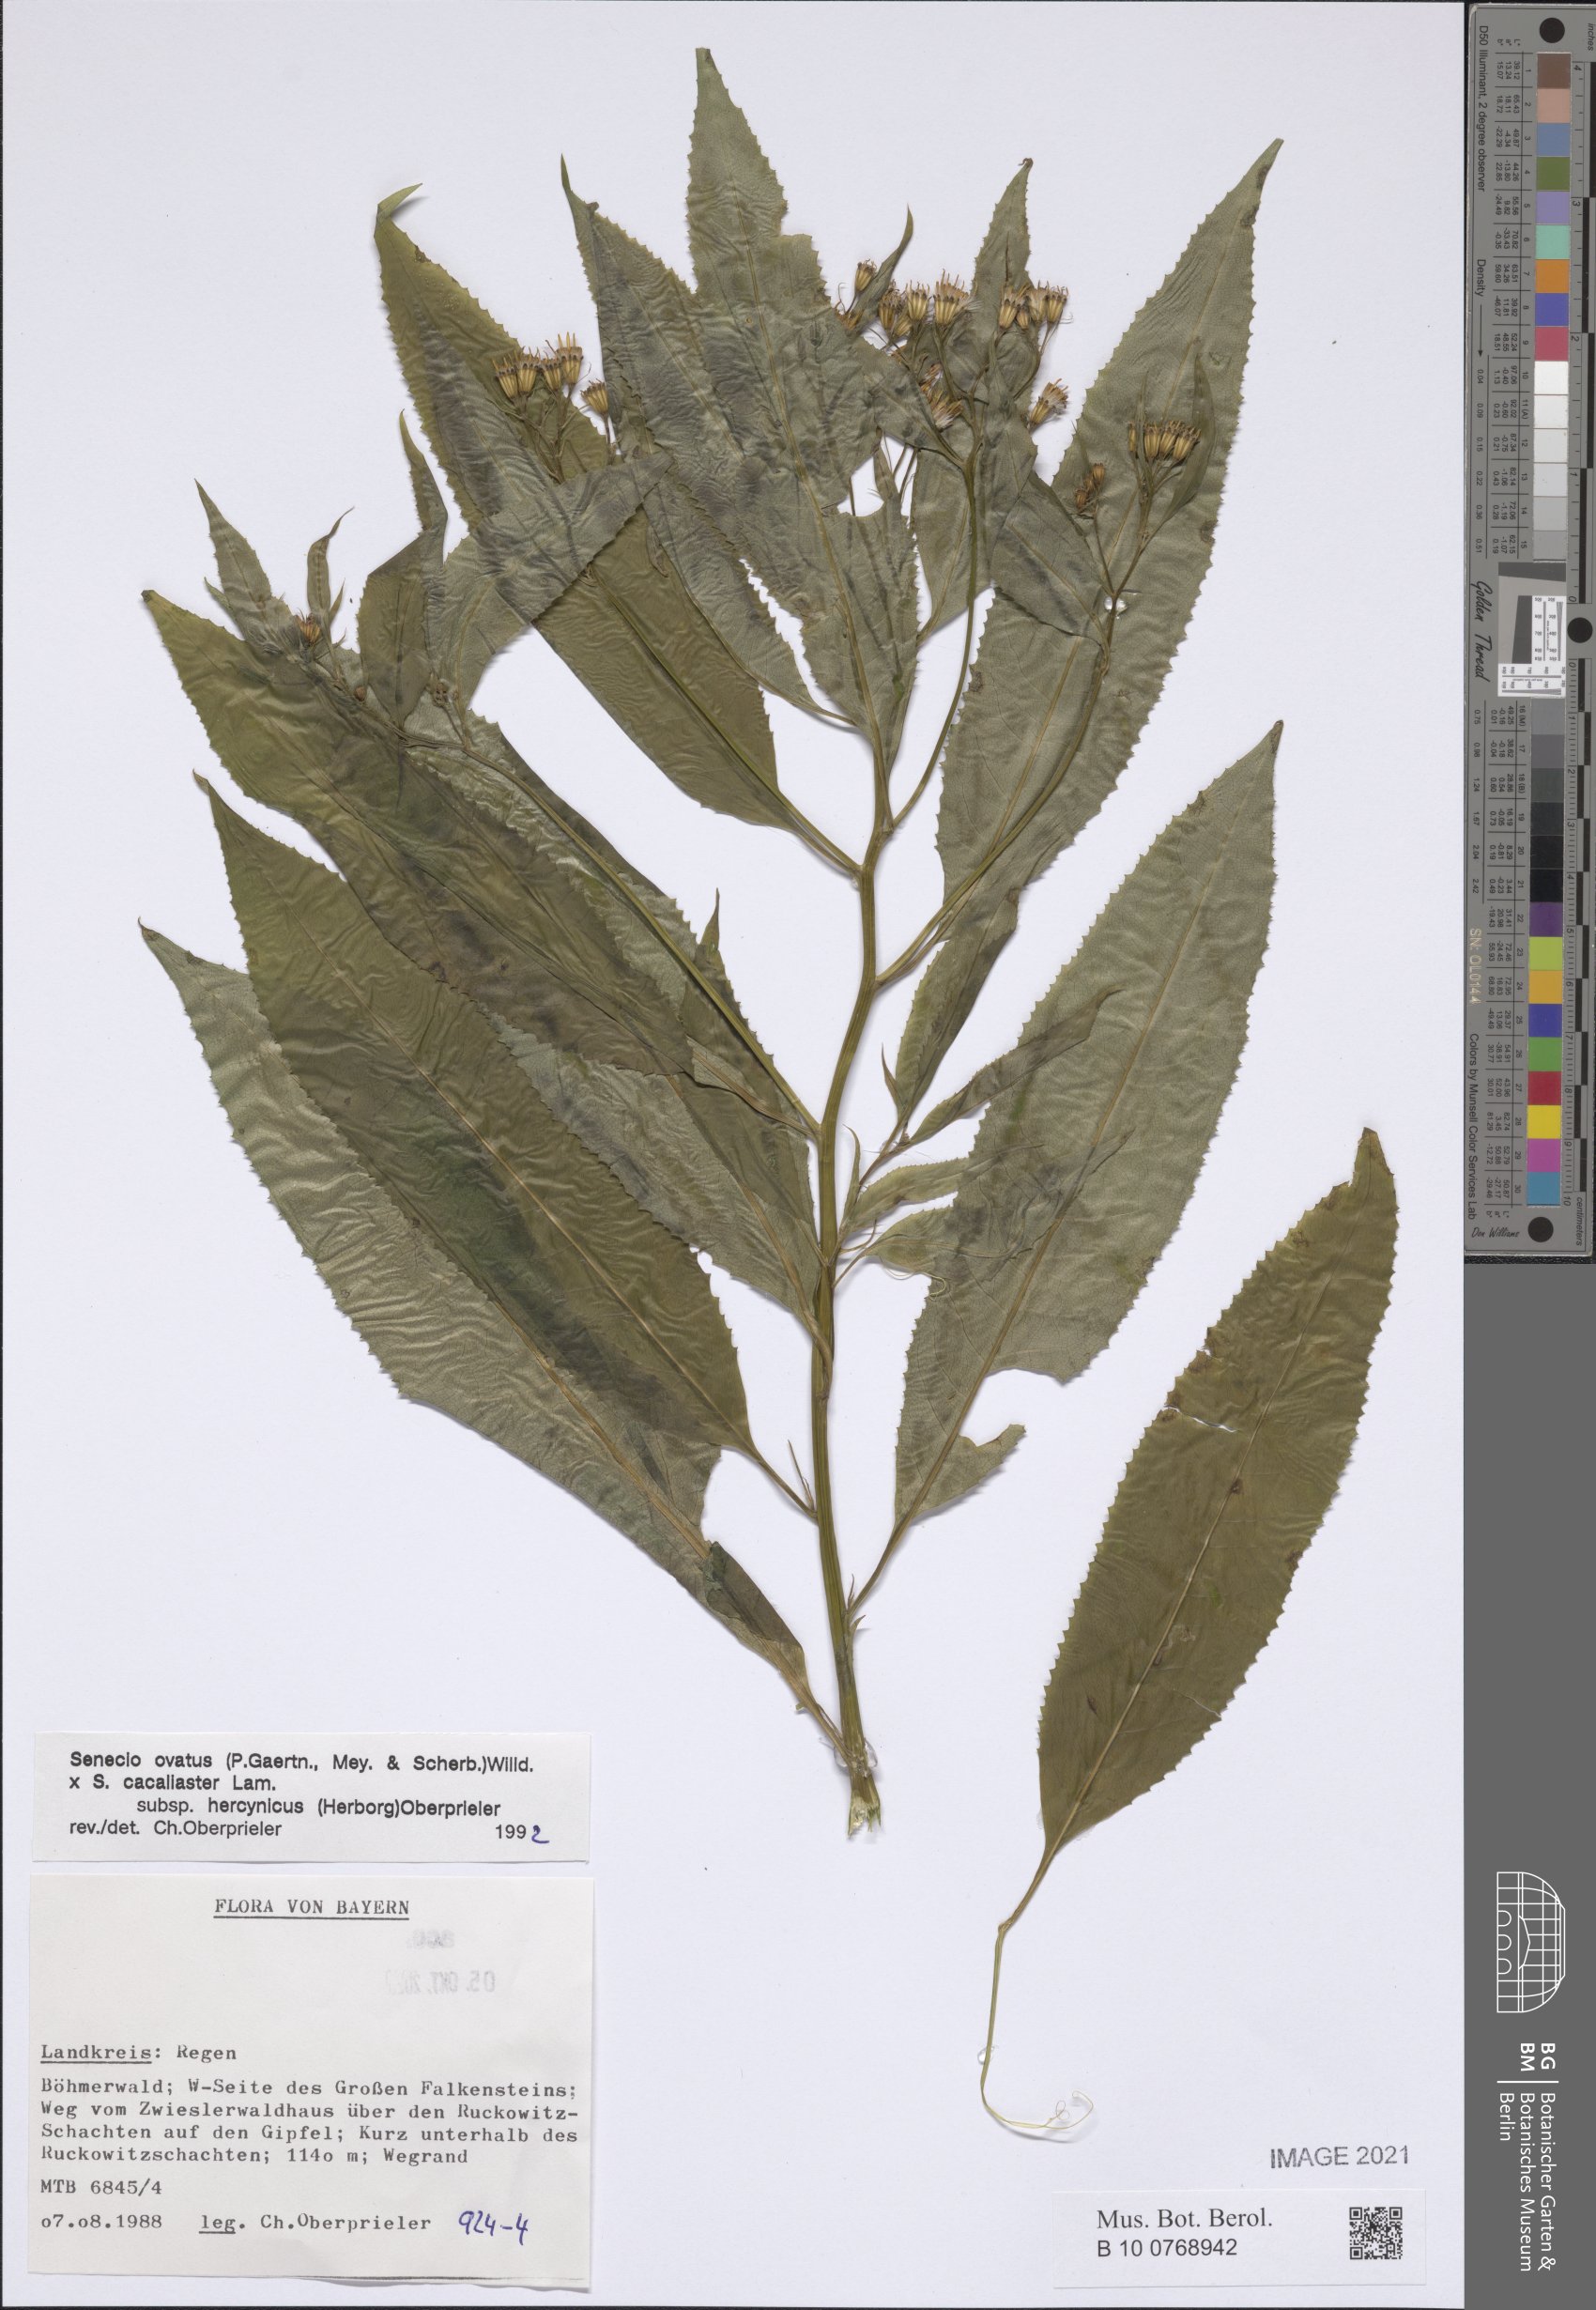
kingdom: Plantae
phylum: Tracheophyta
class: Magnoliopsida
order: Asterales
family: Asteraceae
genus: Senecio
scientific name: Senecio ovatus
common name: Wood ragwort
